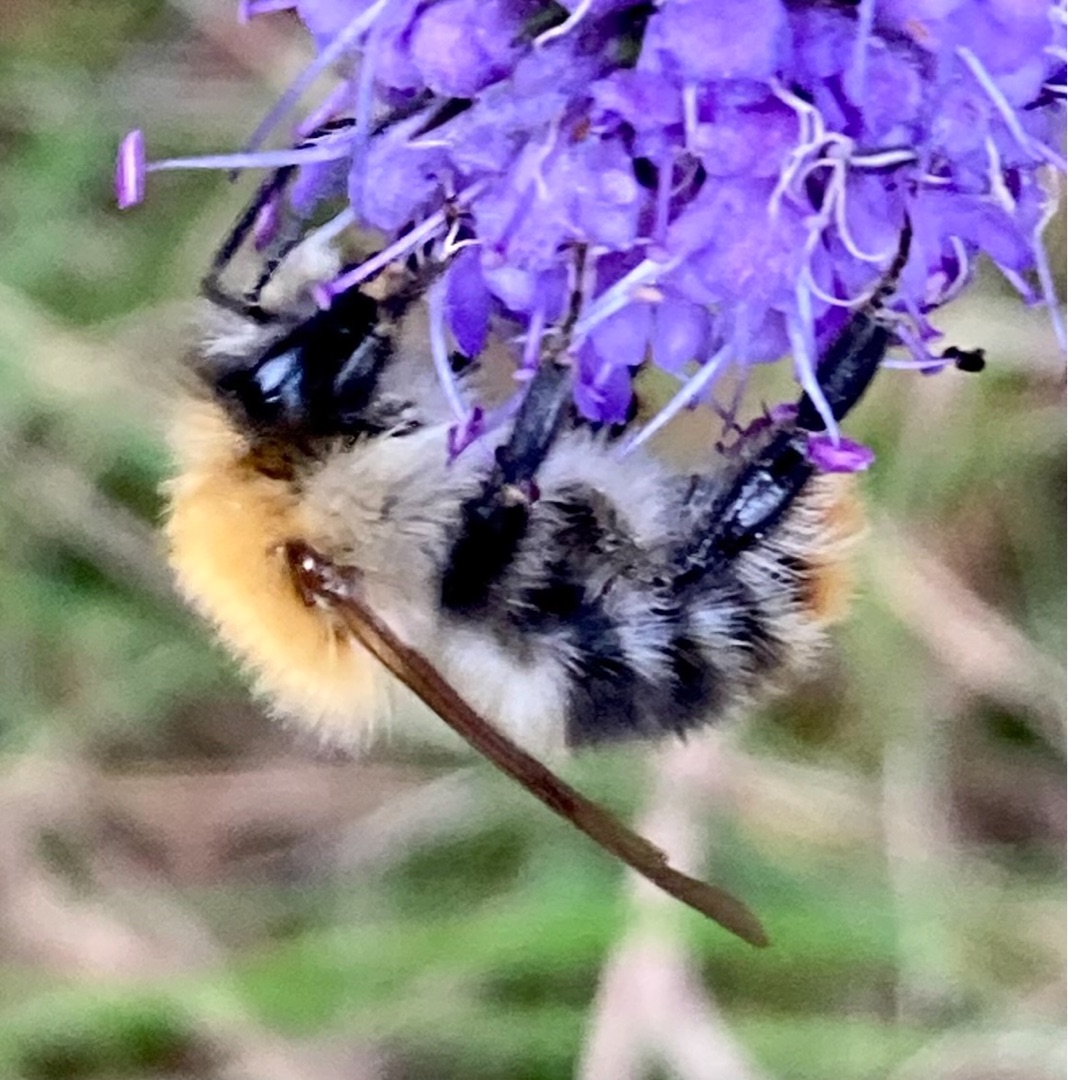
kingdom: Animalia
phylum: Arthropoda
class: Insecta
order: Hymenoptera
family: Apidae
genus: Bombus
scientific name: Bombus pascuorum
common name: Agerhumle
